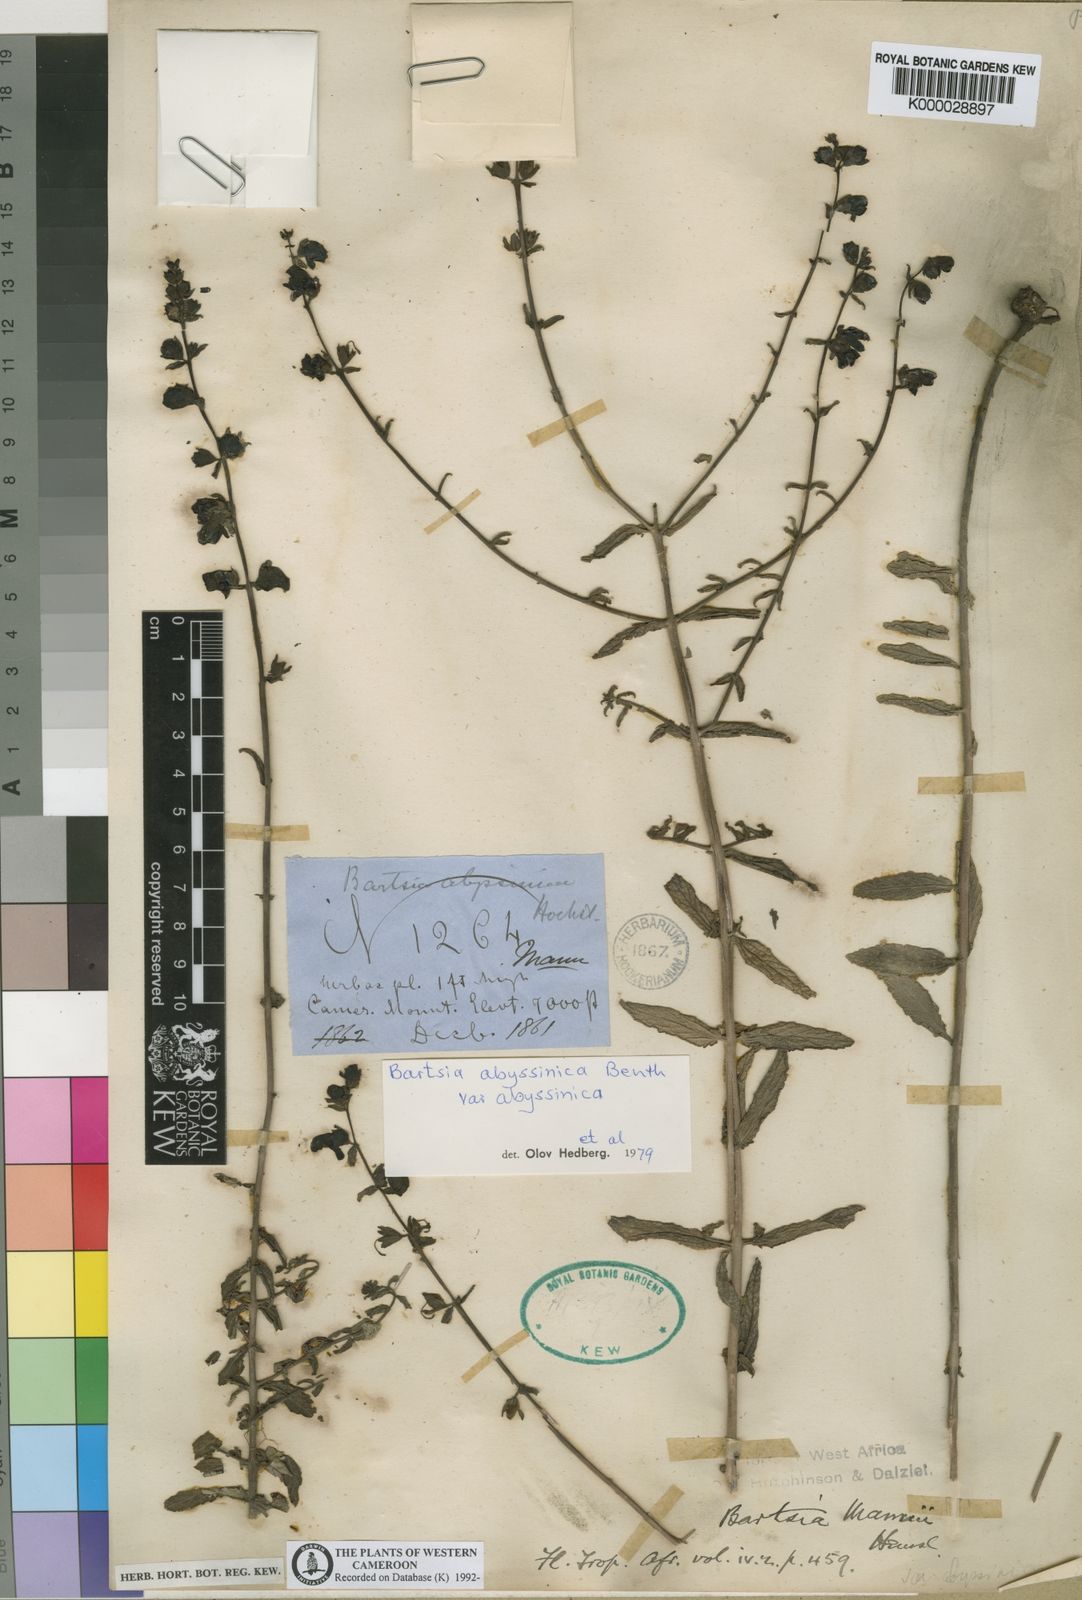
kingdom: Plantae
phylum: Tracheophyta
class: Magnoliopsida
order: Lamiales
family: Orobanchaceae
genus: Hedbergia
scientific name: Hedbergia abyssinica
